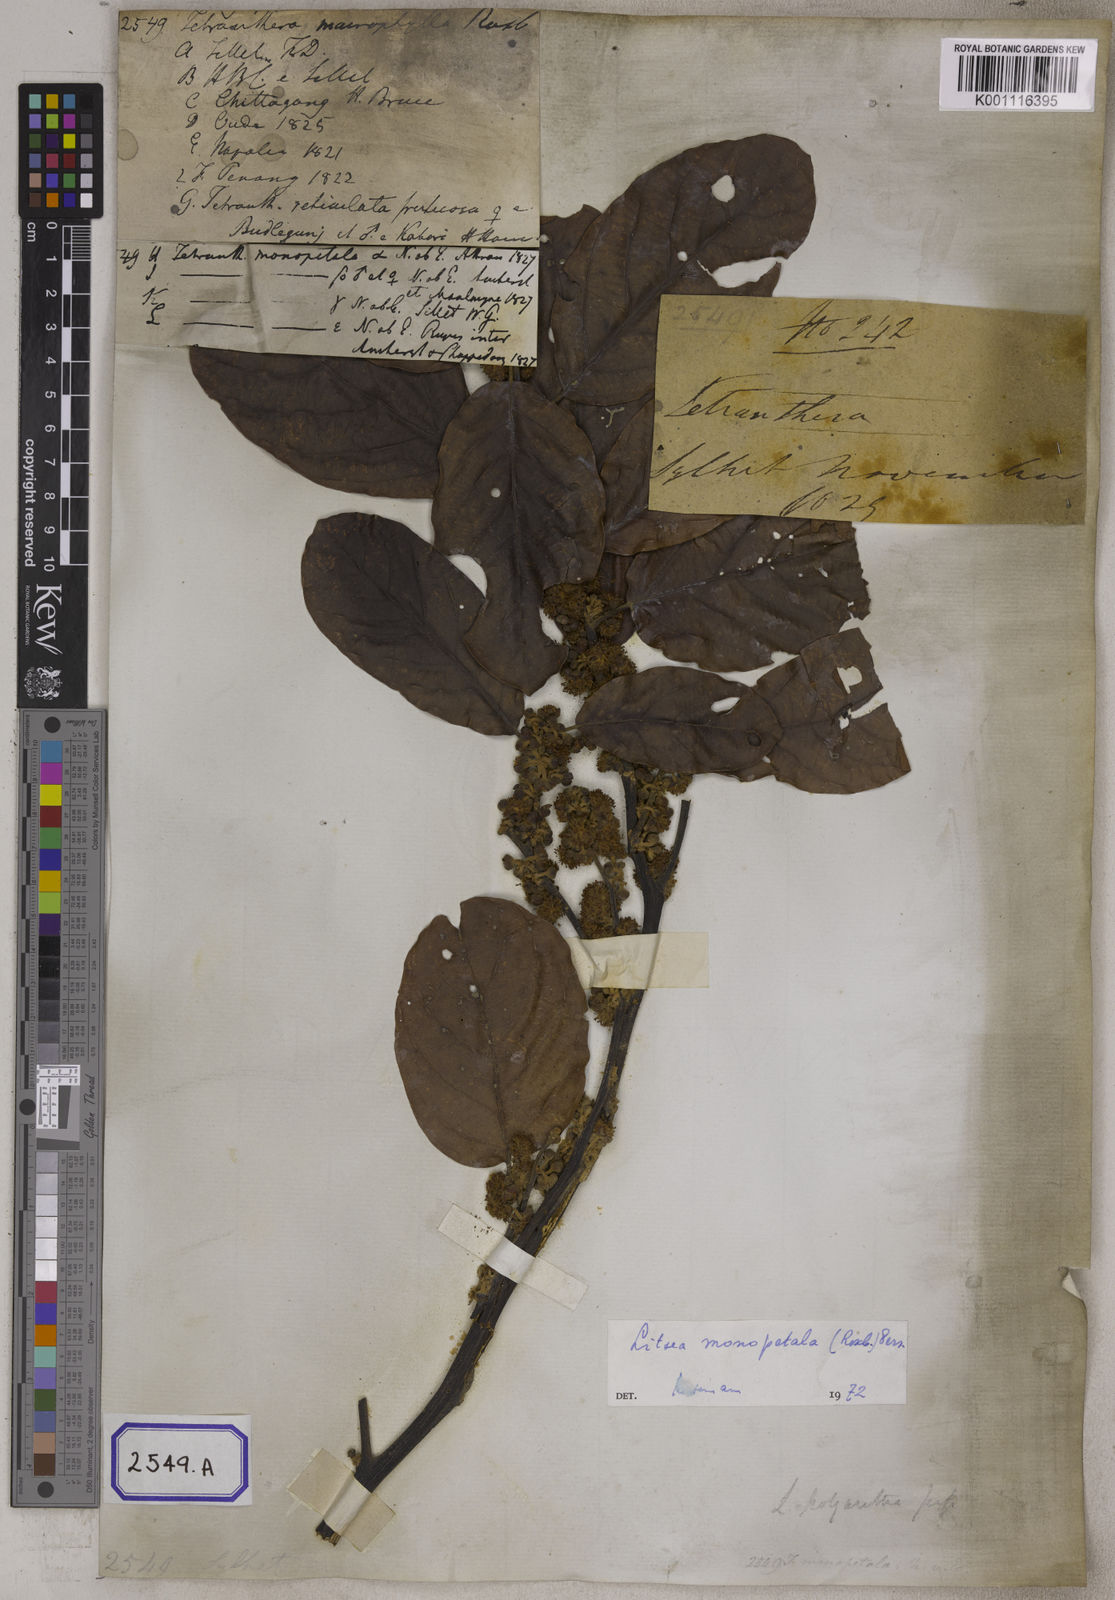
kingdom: Plantae
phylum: Tracheophyta
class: Magnoliopsida
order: Laurales
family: Lauraceae
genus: Litsea
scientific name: Litsea
